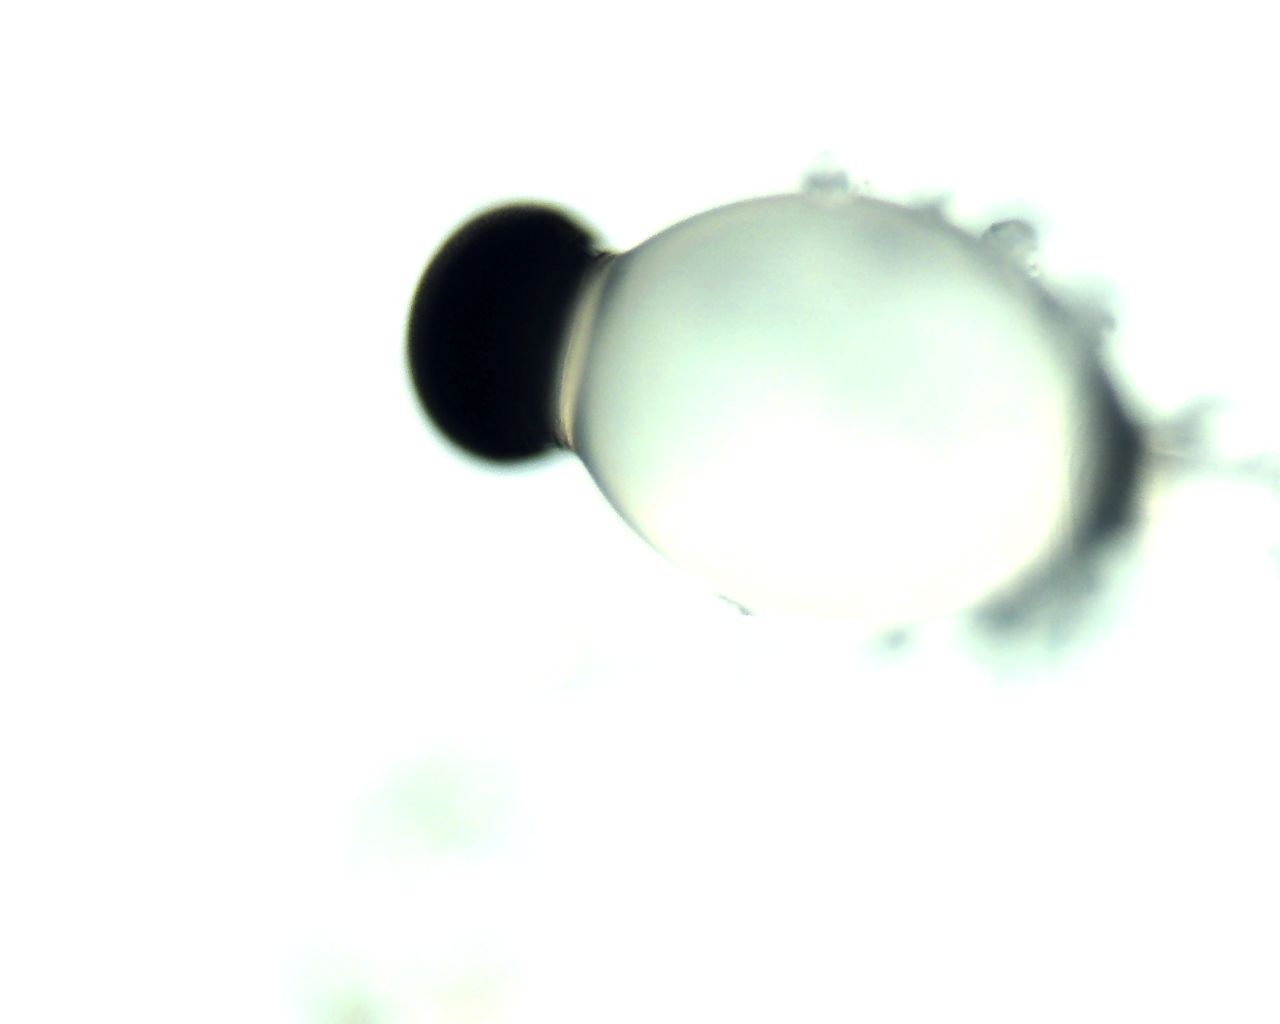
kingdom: Fungi
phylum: Mucoromycota
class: Mucoromycetes
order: Mucorales
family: Pilobolaceae
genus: Pilobolus
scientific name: Pilobolus crystallinus
